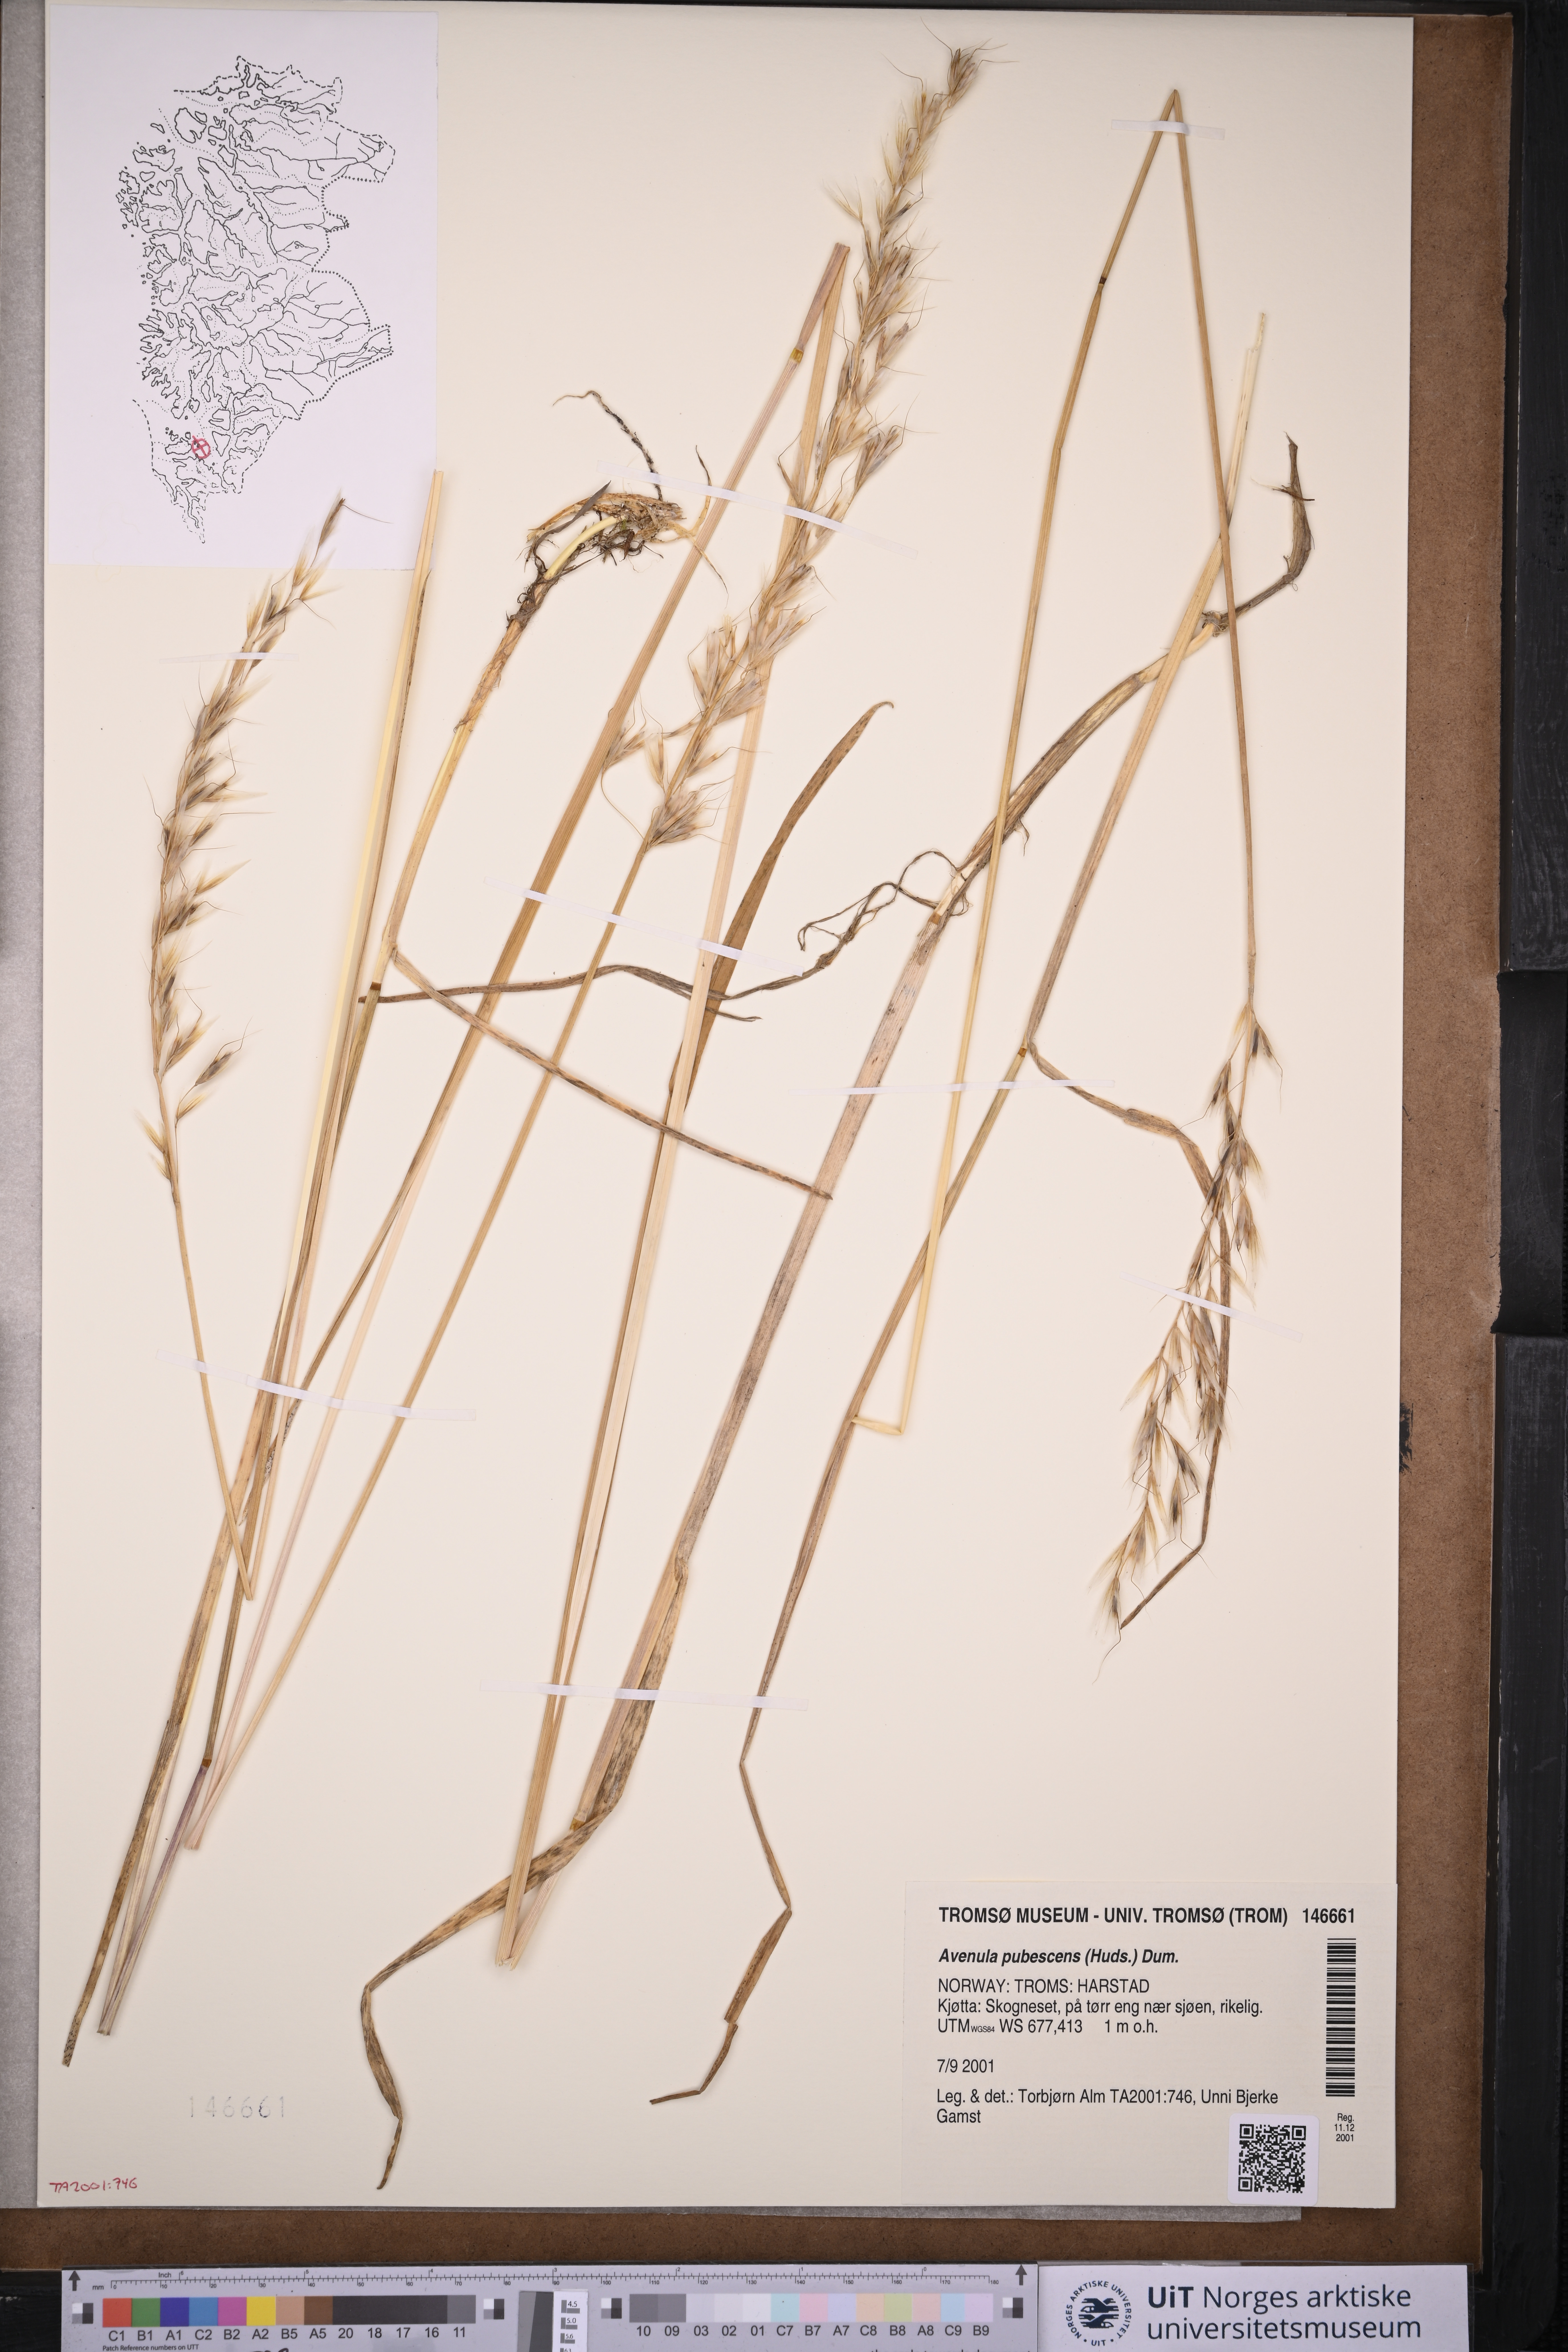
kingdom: Plantae
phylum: Tracheophyta
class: Liliopsida
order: Poales
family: Poaceae
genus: Avenula
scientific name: Avenula pubescens
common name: Downy alpine oatgrass
